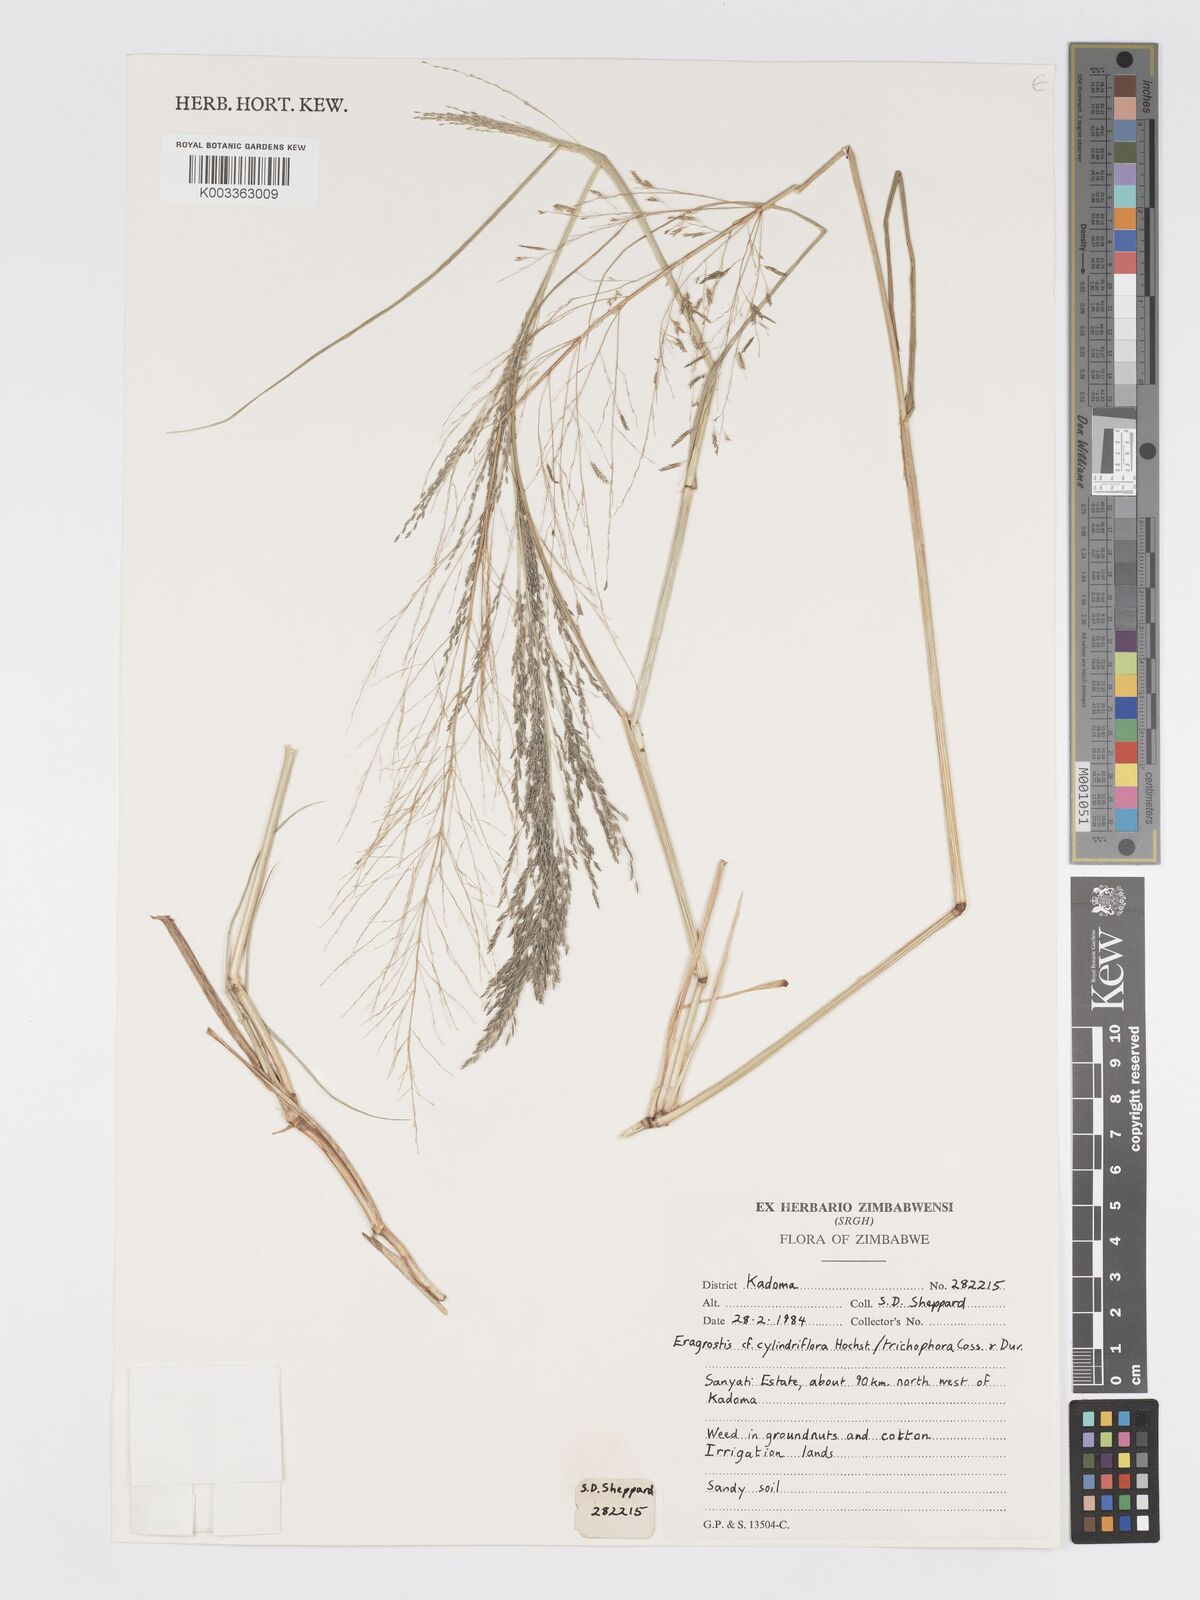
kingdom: Plantae
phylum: Tracheophyta
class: Liliopsida
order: Poales
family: Poaceae
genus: Eragrostis
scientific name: Eragrostis cylindriflora
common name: Cylinderflower lovegrass
